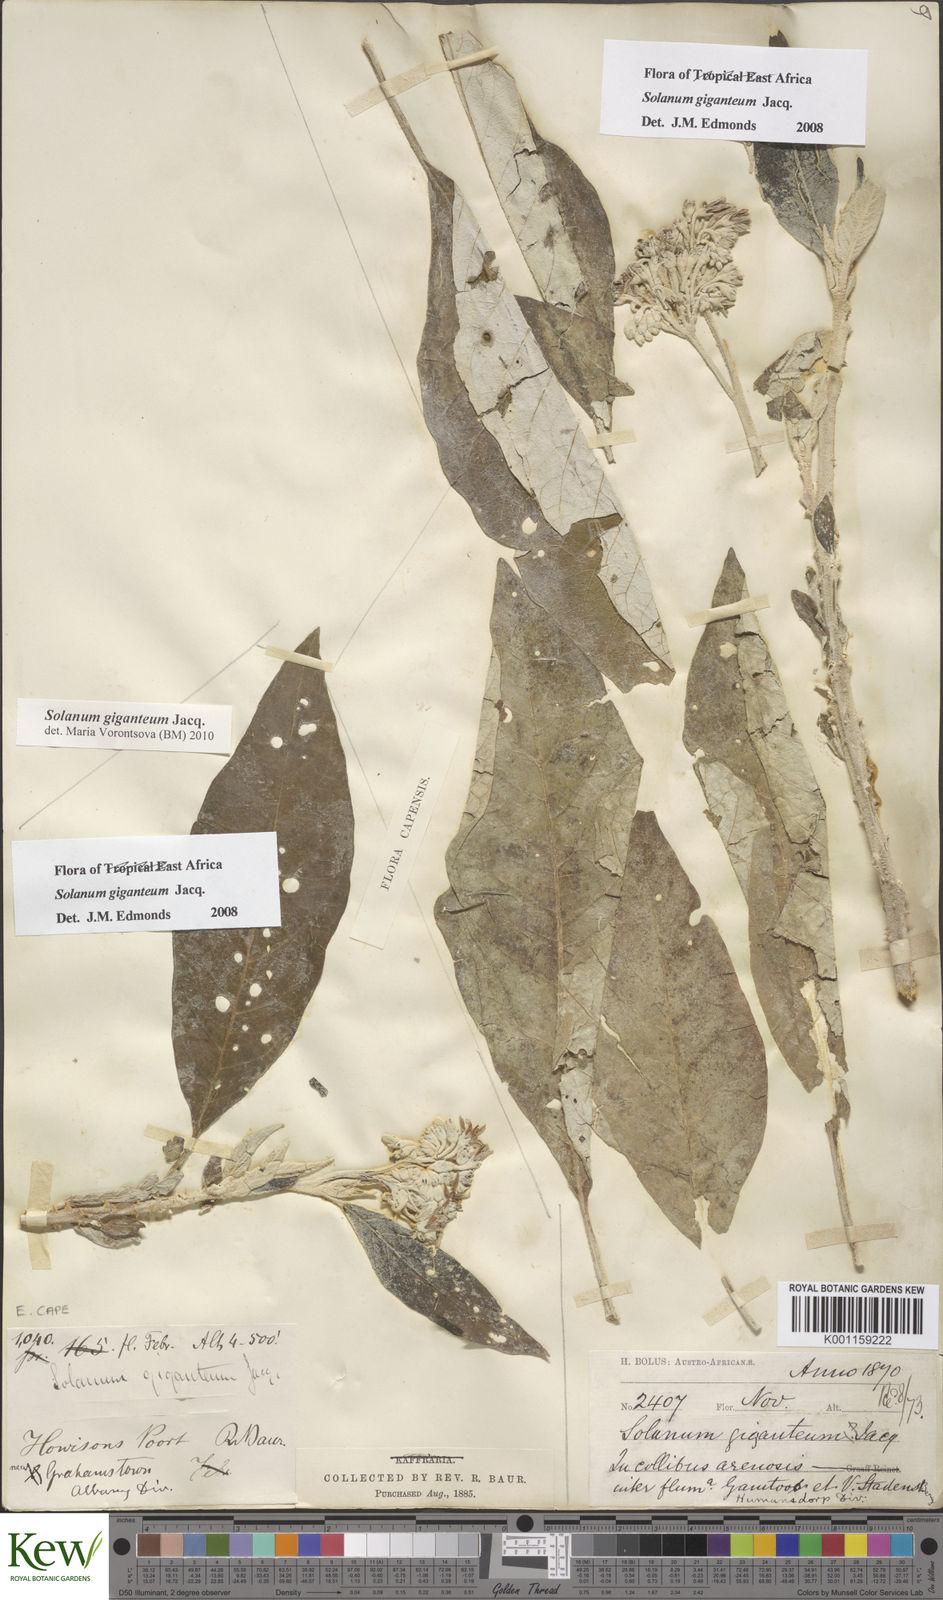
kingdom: Plantae
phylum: Tracheophyta
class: Magnoliopsida
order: Solanales
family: Solanaceae
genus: Solanum
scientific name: Solanum giganteum
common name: Healing-leaf-tree
